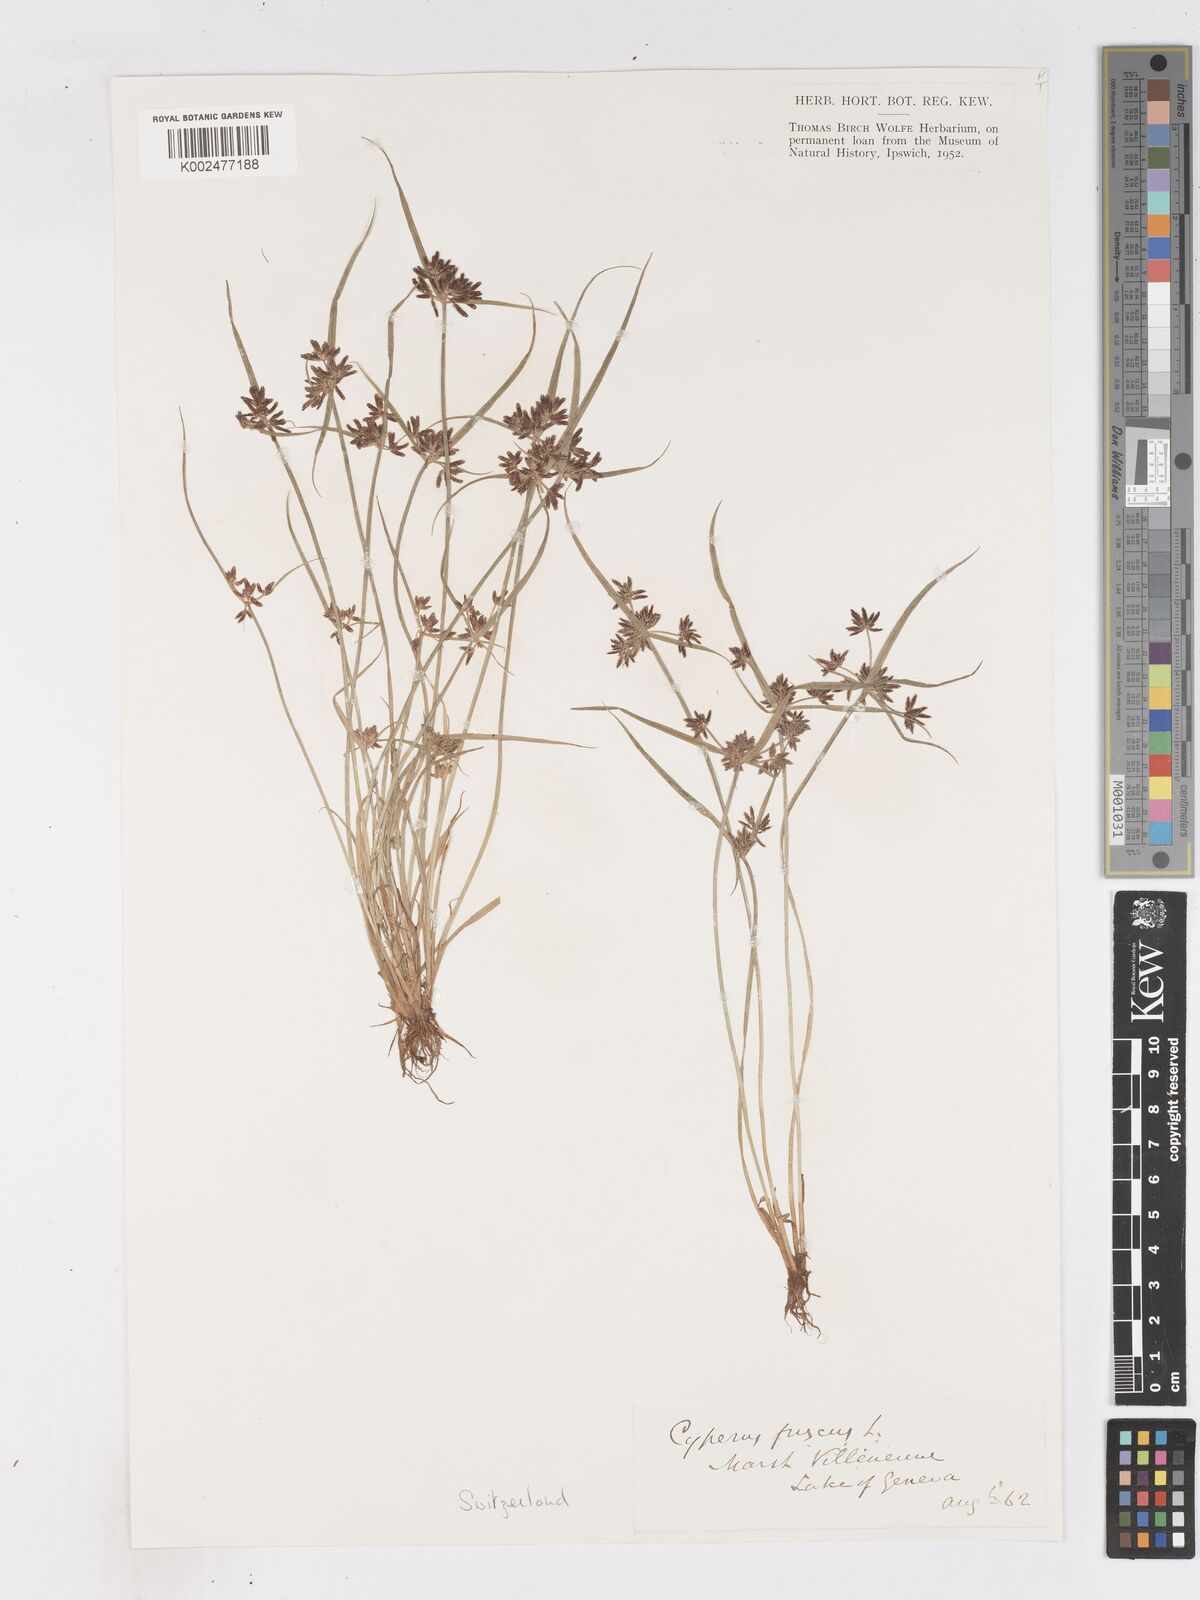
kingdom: Plantae
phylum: Tracheophyta
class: Liliopsida
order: Poales
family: Cyperaceae
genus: Cyperus
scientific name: Cyperus fuscus
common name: Brown galingale
